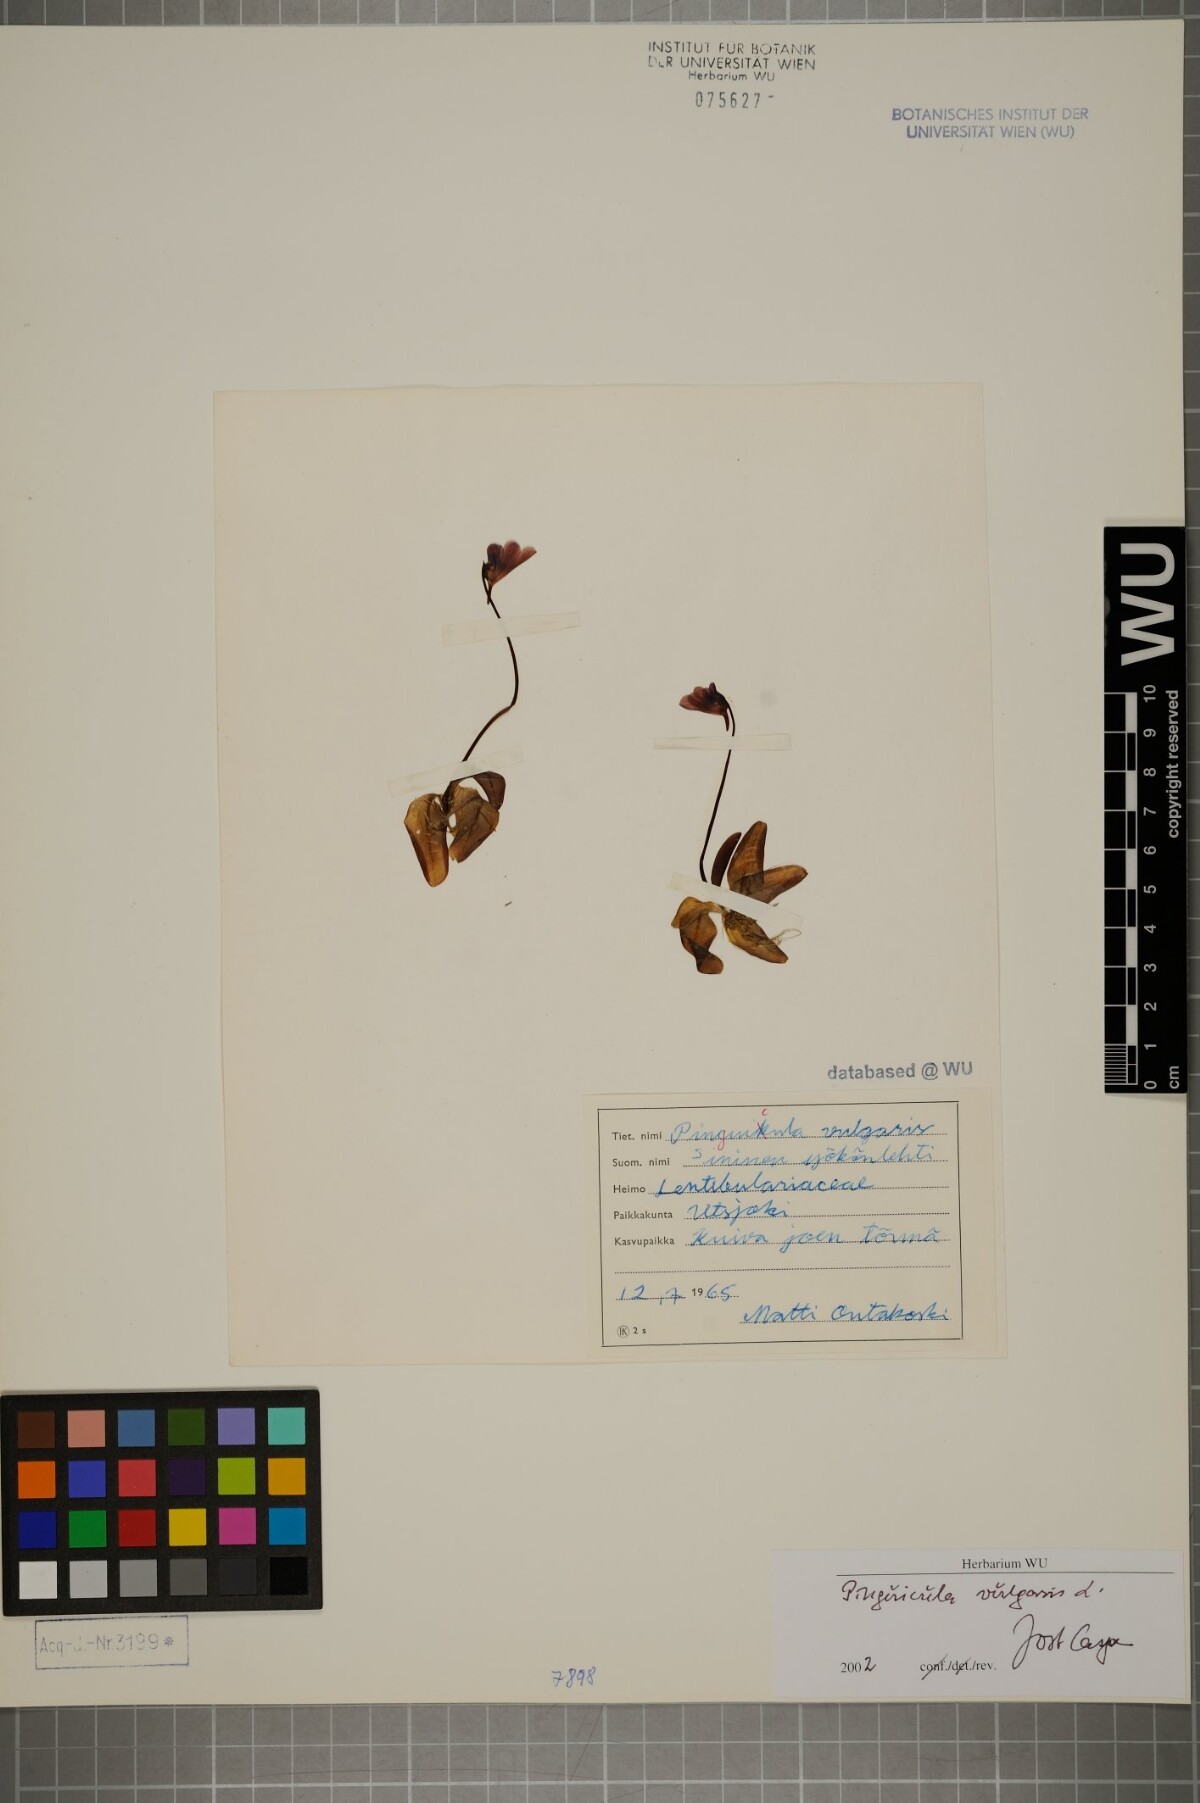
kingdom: Plantae
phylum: Tracheophyta
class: Magnoliopsida
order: Lamiales
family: Lentibulariaceae
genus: Pinguicula
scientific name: Pinguicula vulgaris
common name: Common butterwort
